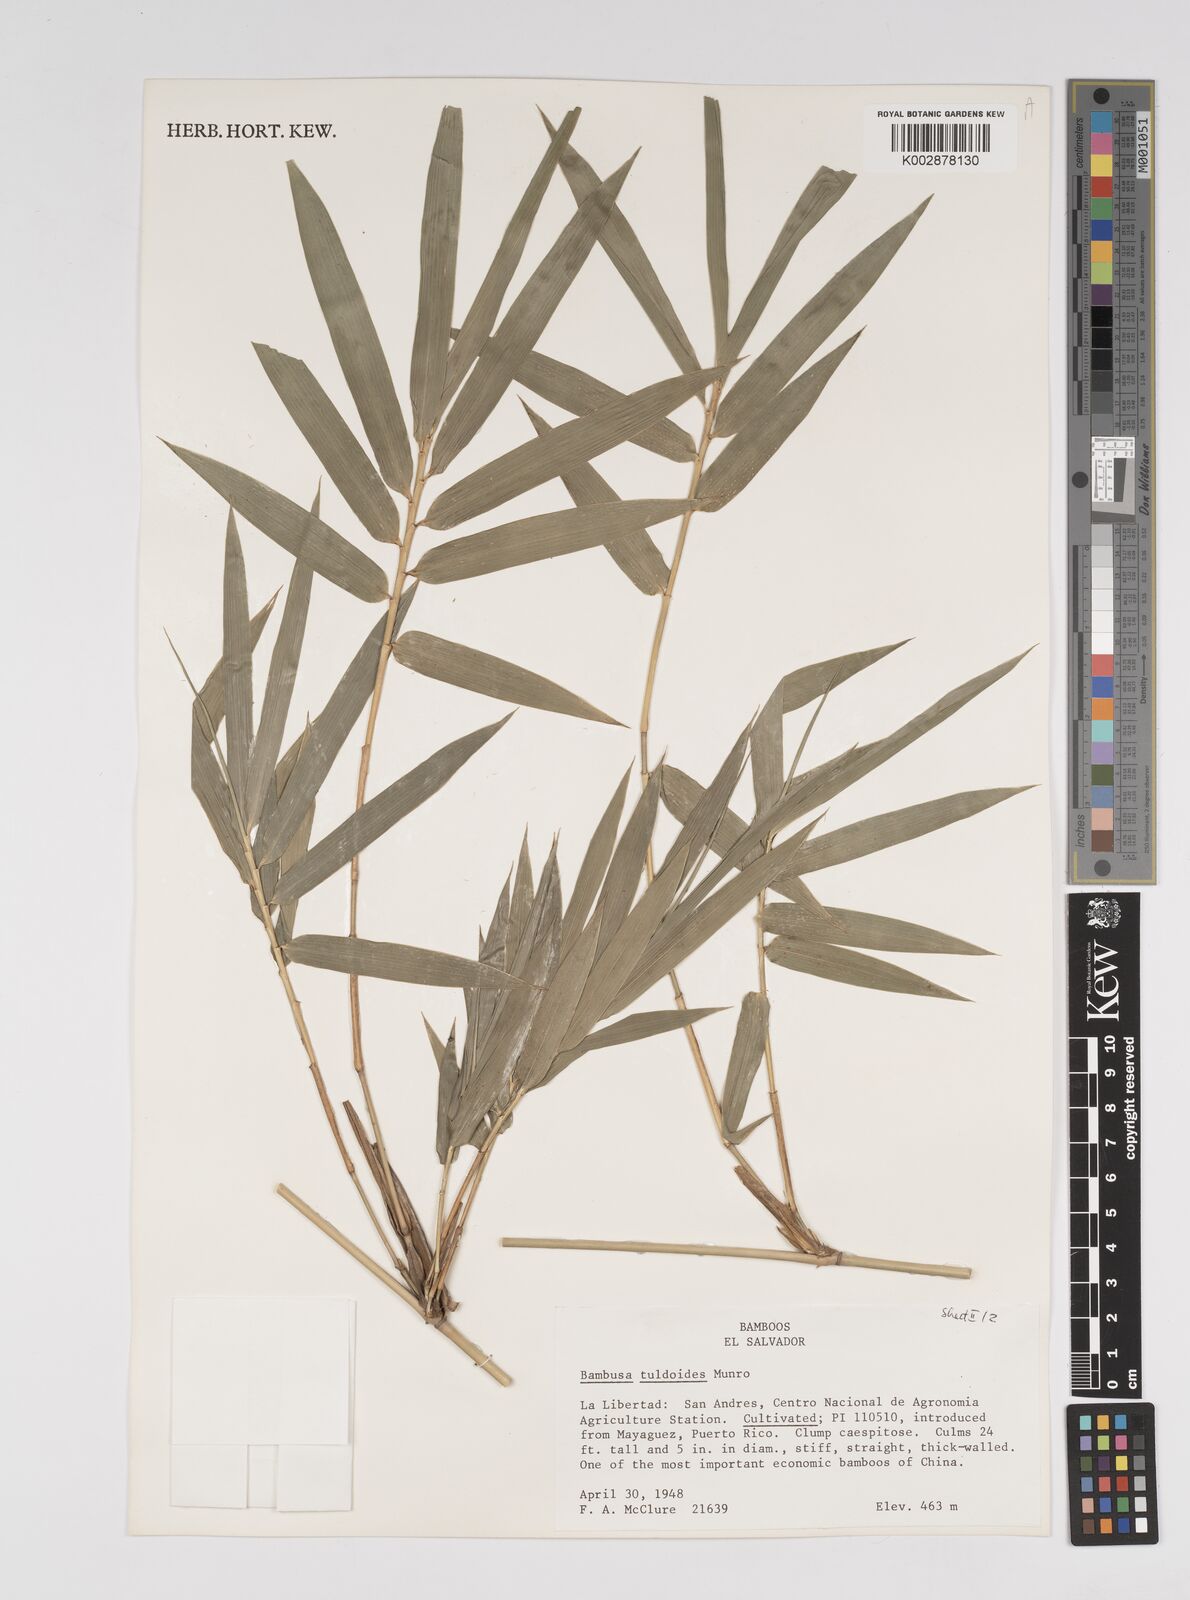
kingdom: Plantae
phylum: Tracheophyta
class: Liliopsida
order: Poales
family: Poaceae
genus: Bambusa
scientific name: Bambusa tuldoides
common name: Verdant bamboo
